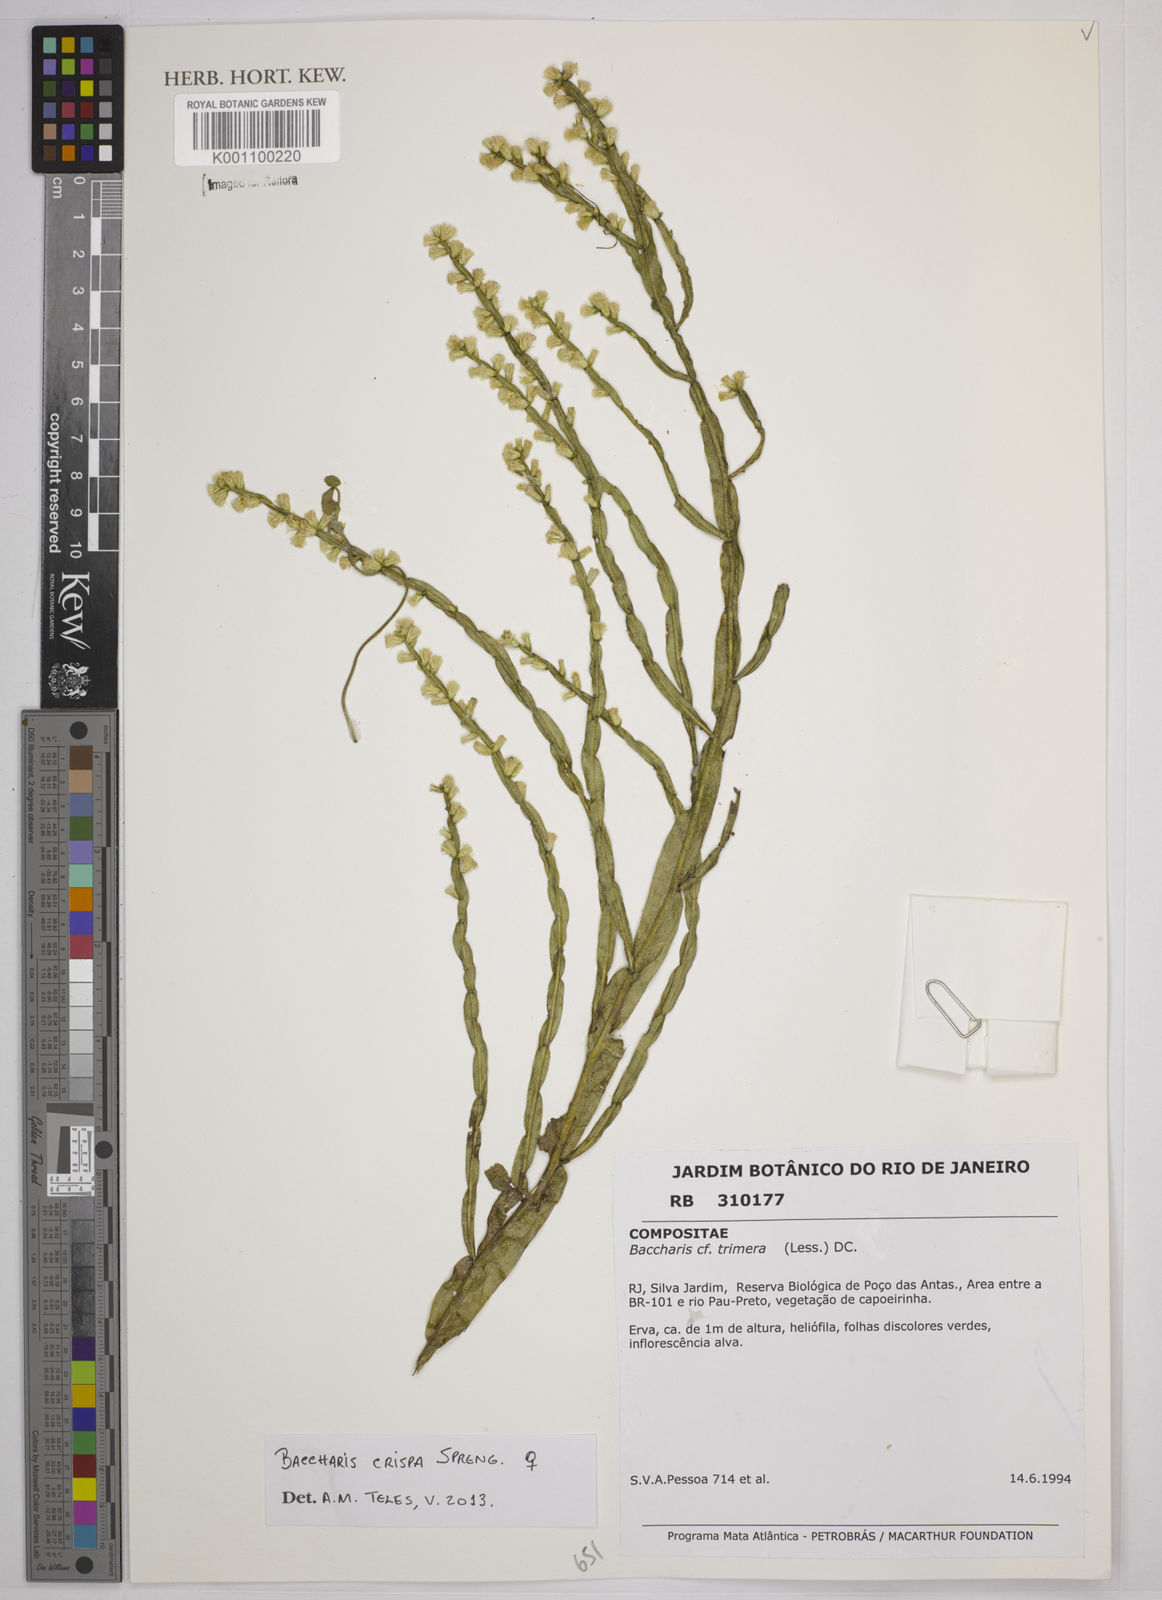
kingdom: Plantae
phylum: Tracheophyta
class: Magnoliopsida
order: Asterales
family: Asteraceae
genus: Baccharis
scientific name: Baccharis
